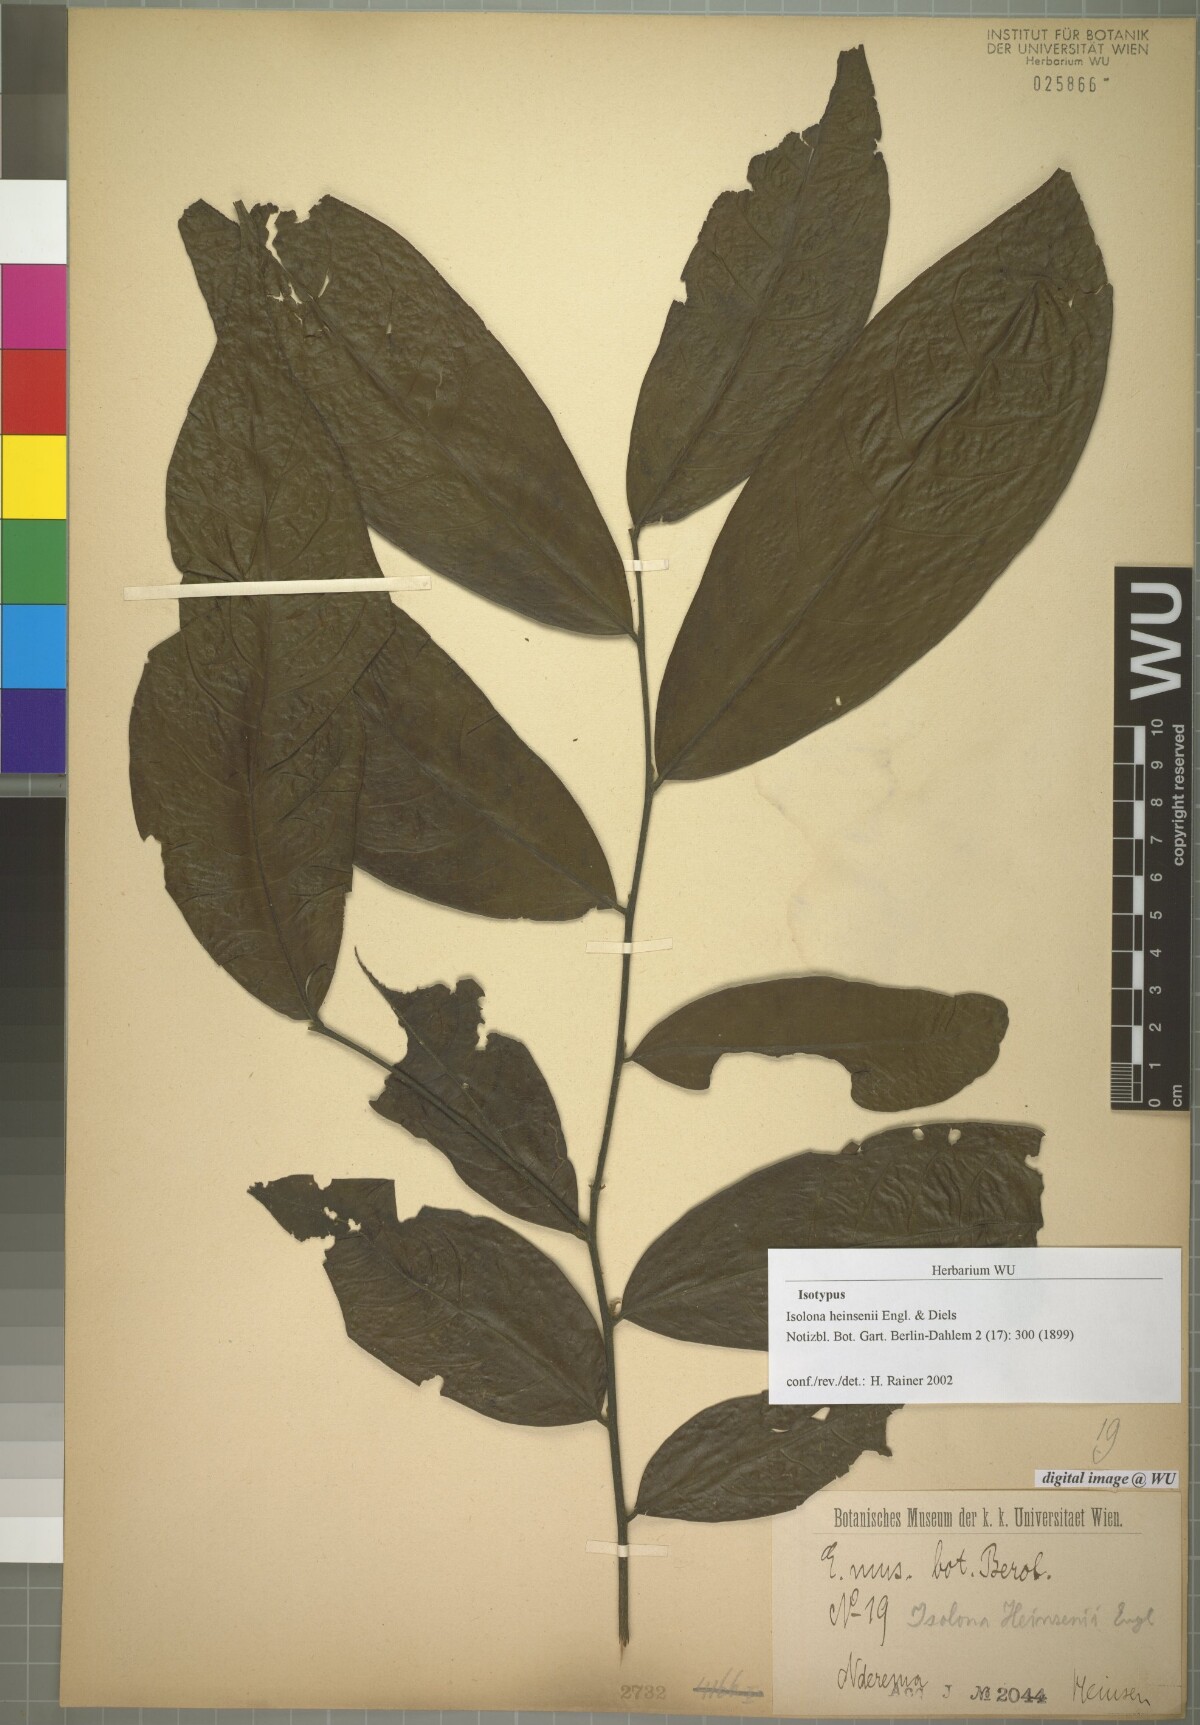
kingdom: Plantae
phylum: Tracheophyta
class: Magnoliopsida
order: Magnoliales
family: Annonaceae
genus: Isolona
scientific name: Isolona heinsenii
